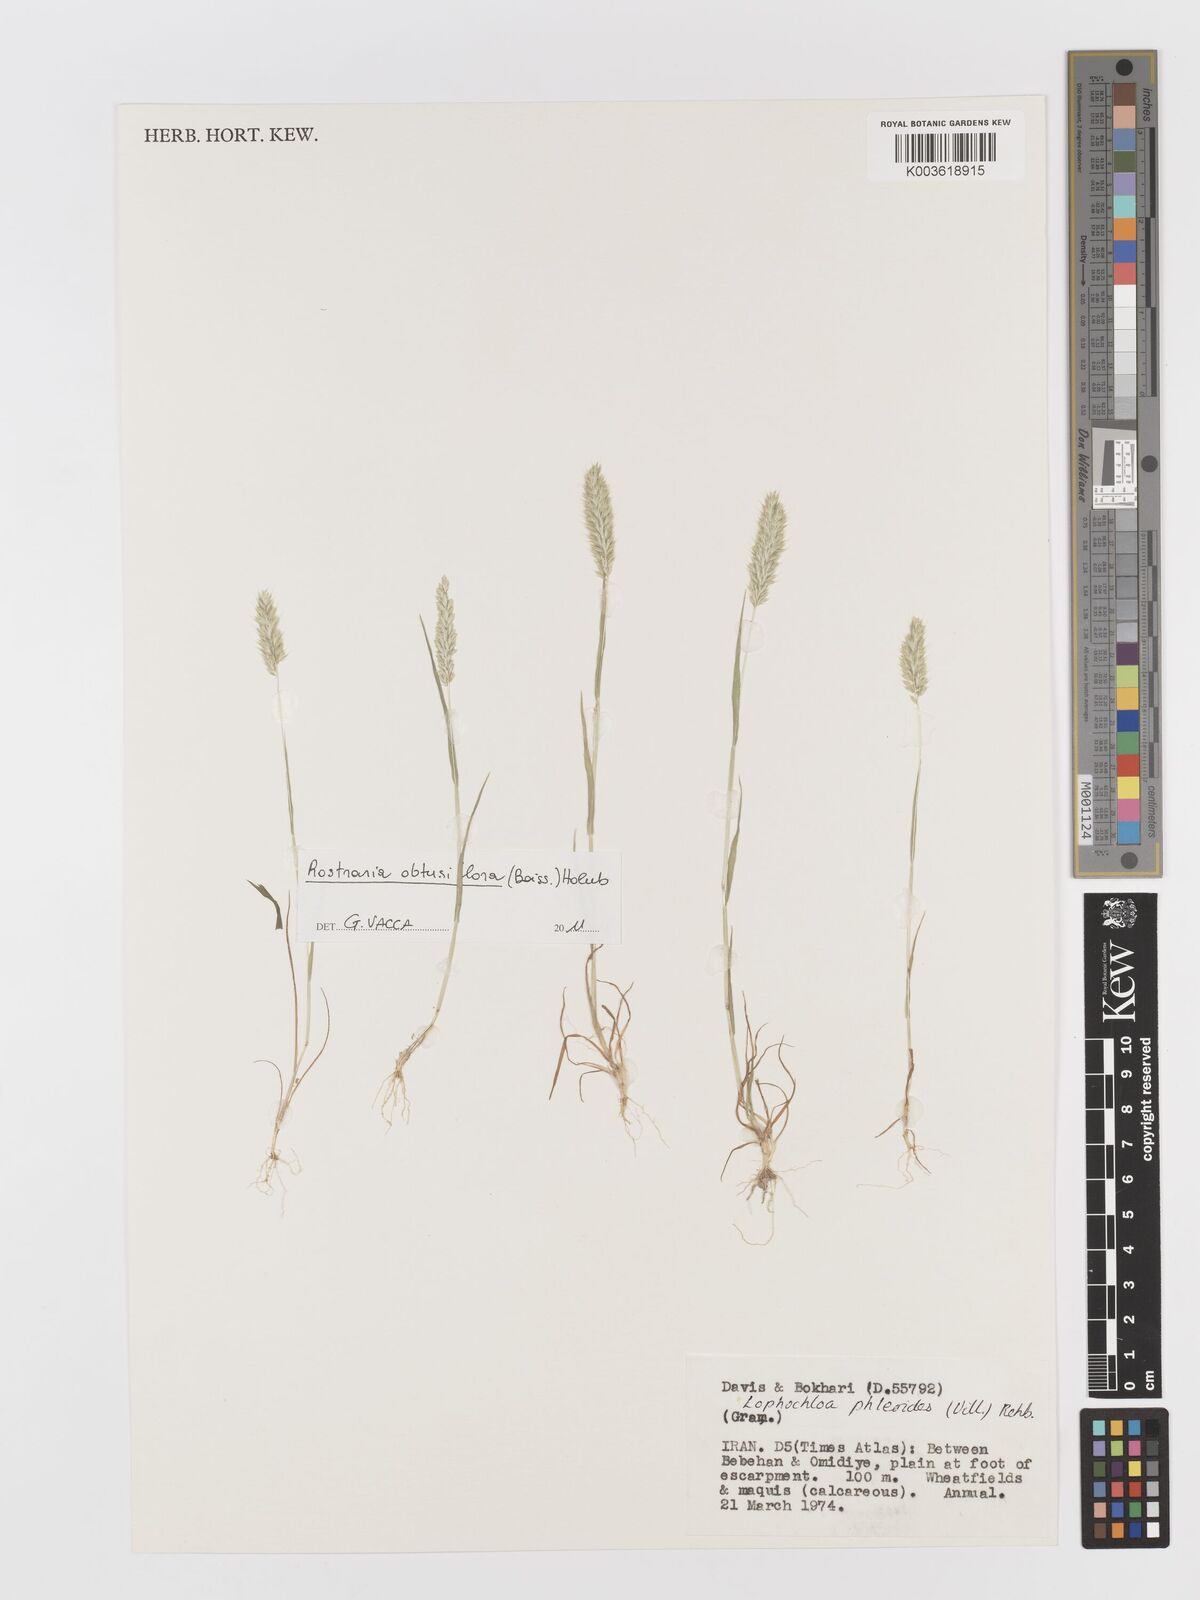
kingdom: Plantae
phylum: Tracheophyta
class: Liliopsida
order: Poales
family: Poaceae
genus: Rostraria
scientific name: Rostraria cristata
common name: Mediterranean hair-grass
